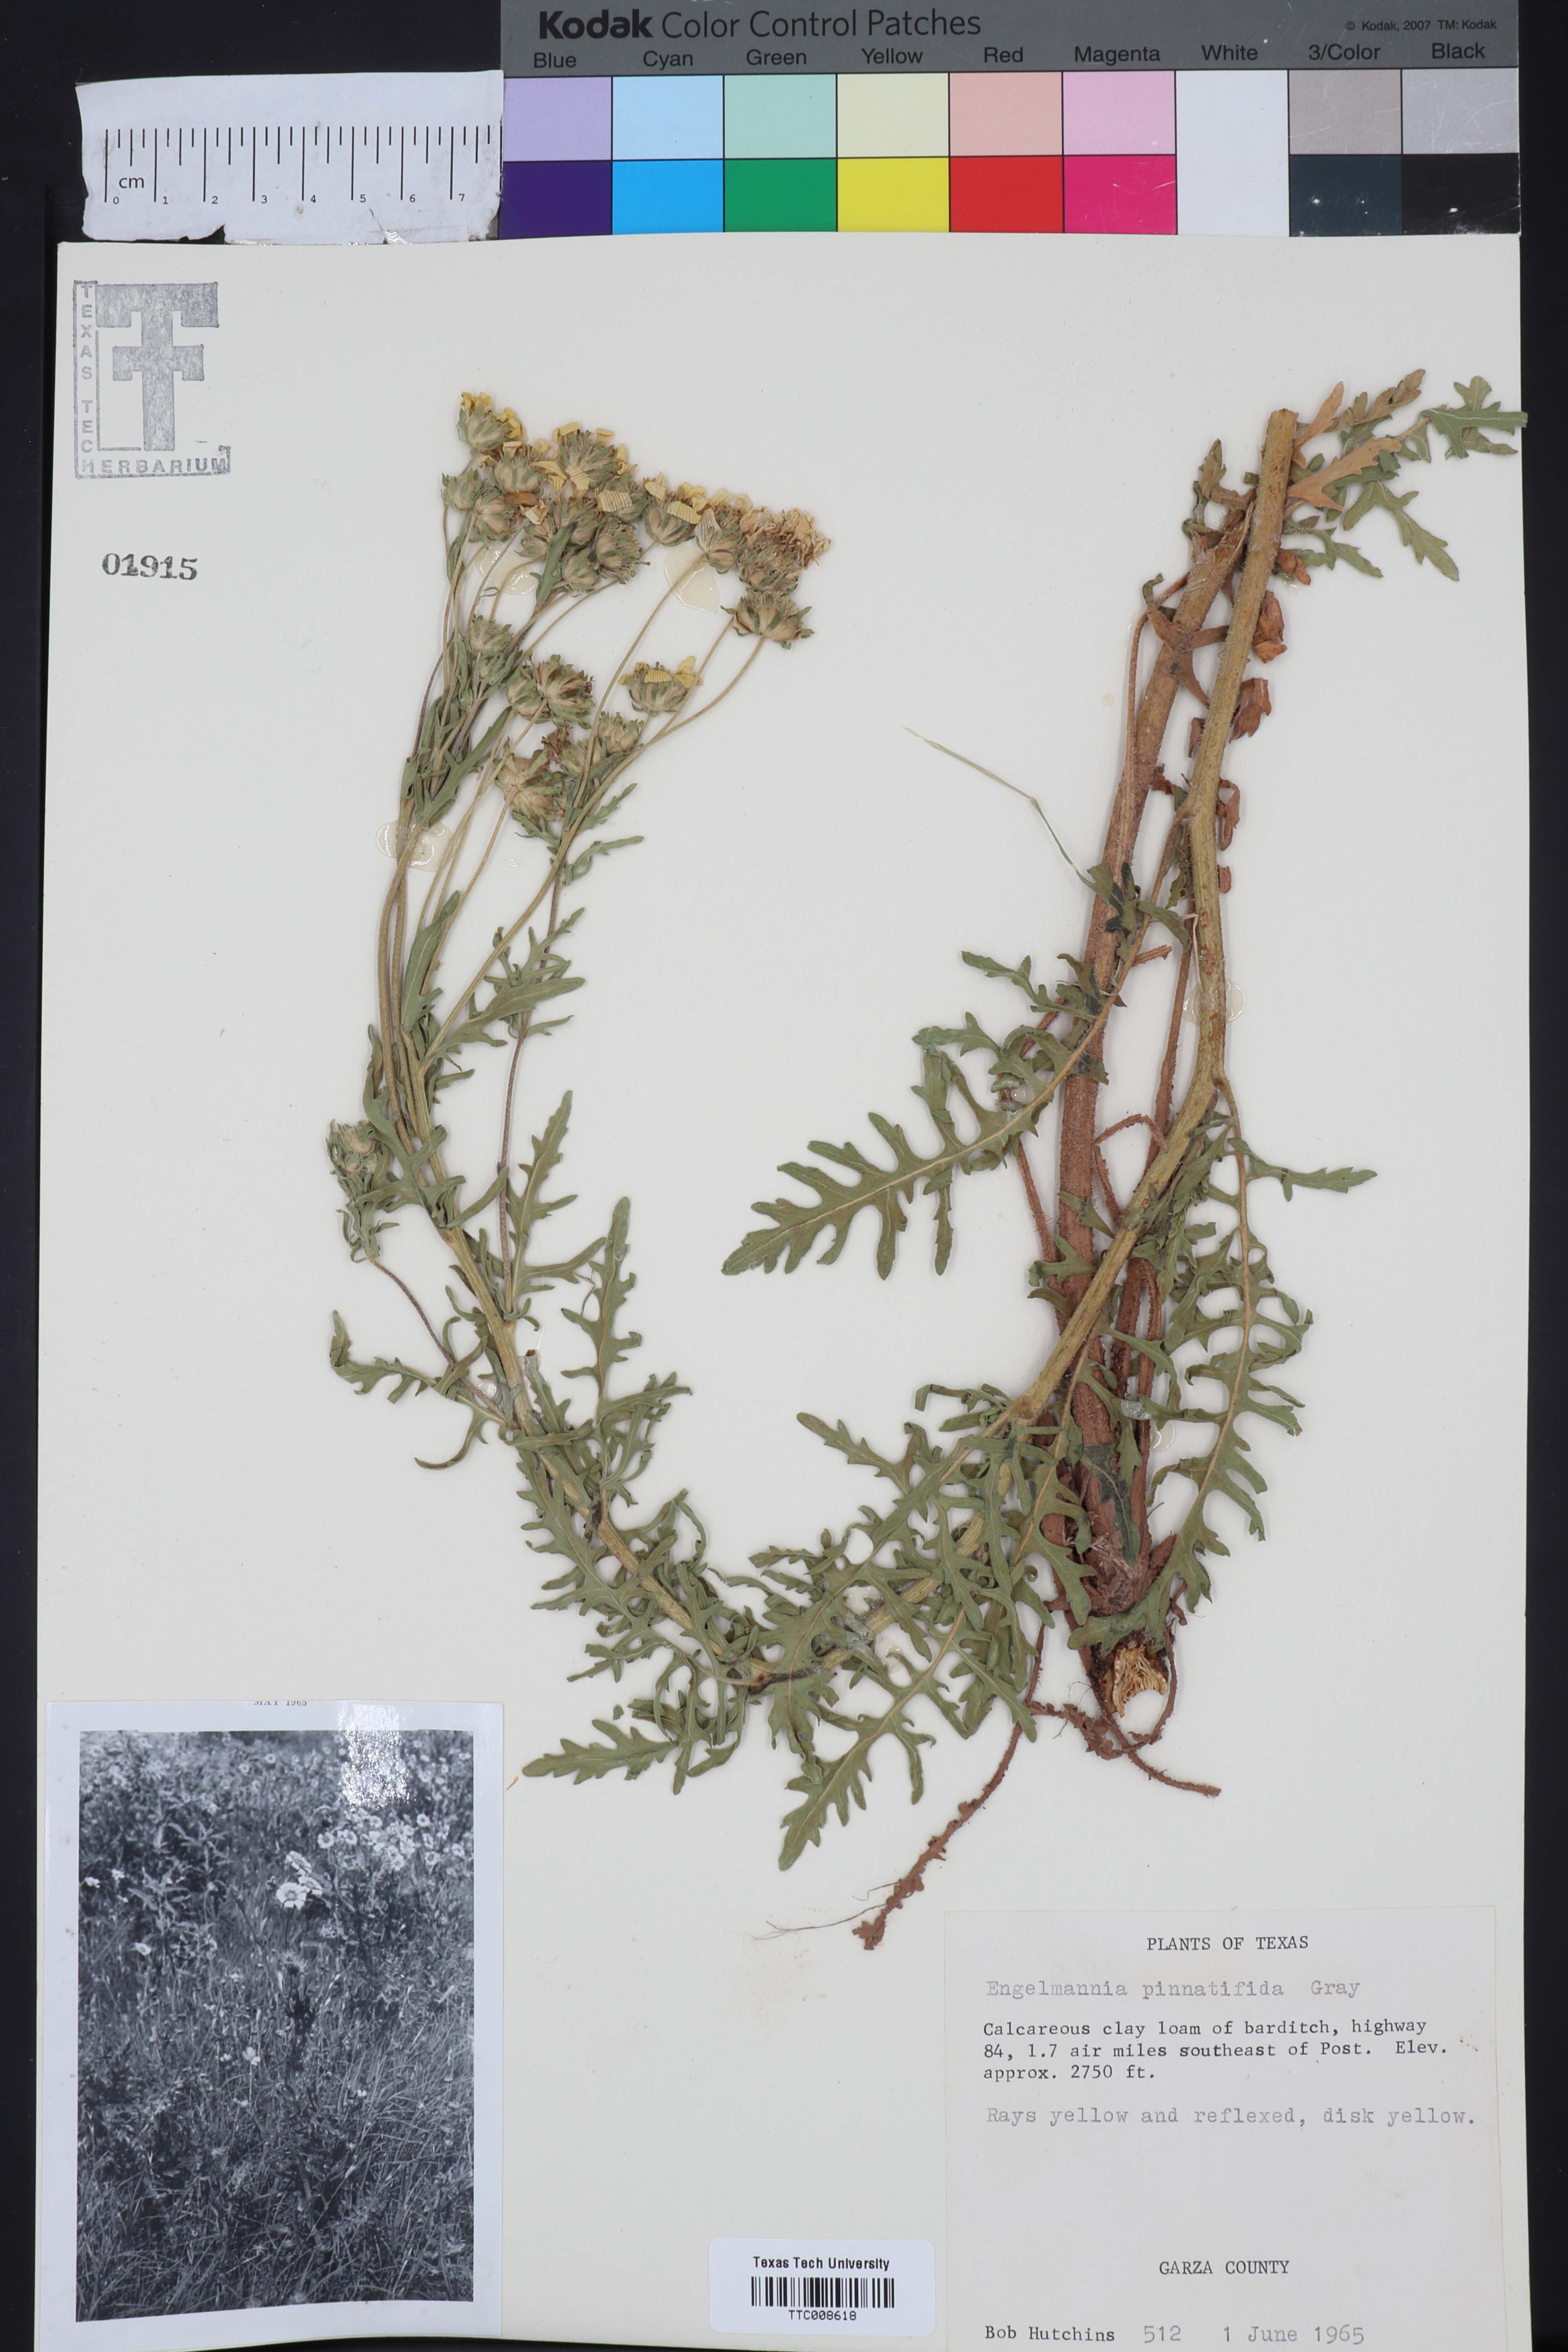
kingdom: Plantae
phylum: Tracheophyta
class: Magnoliopsida
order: Asterales
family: Asteraceae
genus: Engelmannia
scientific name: Engelmannia peristenia
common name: Engelmann's daisy
